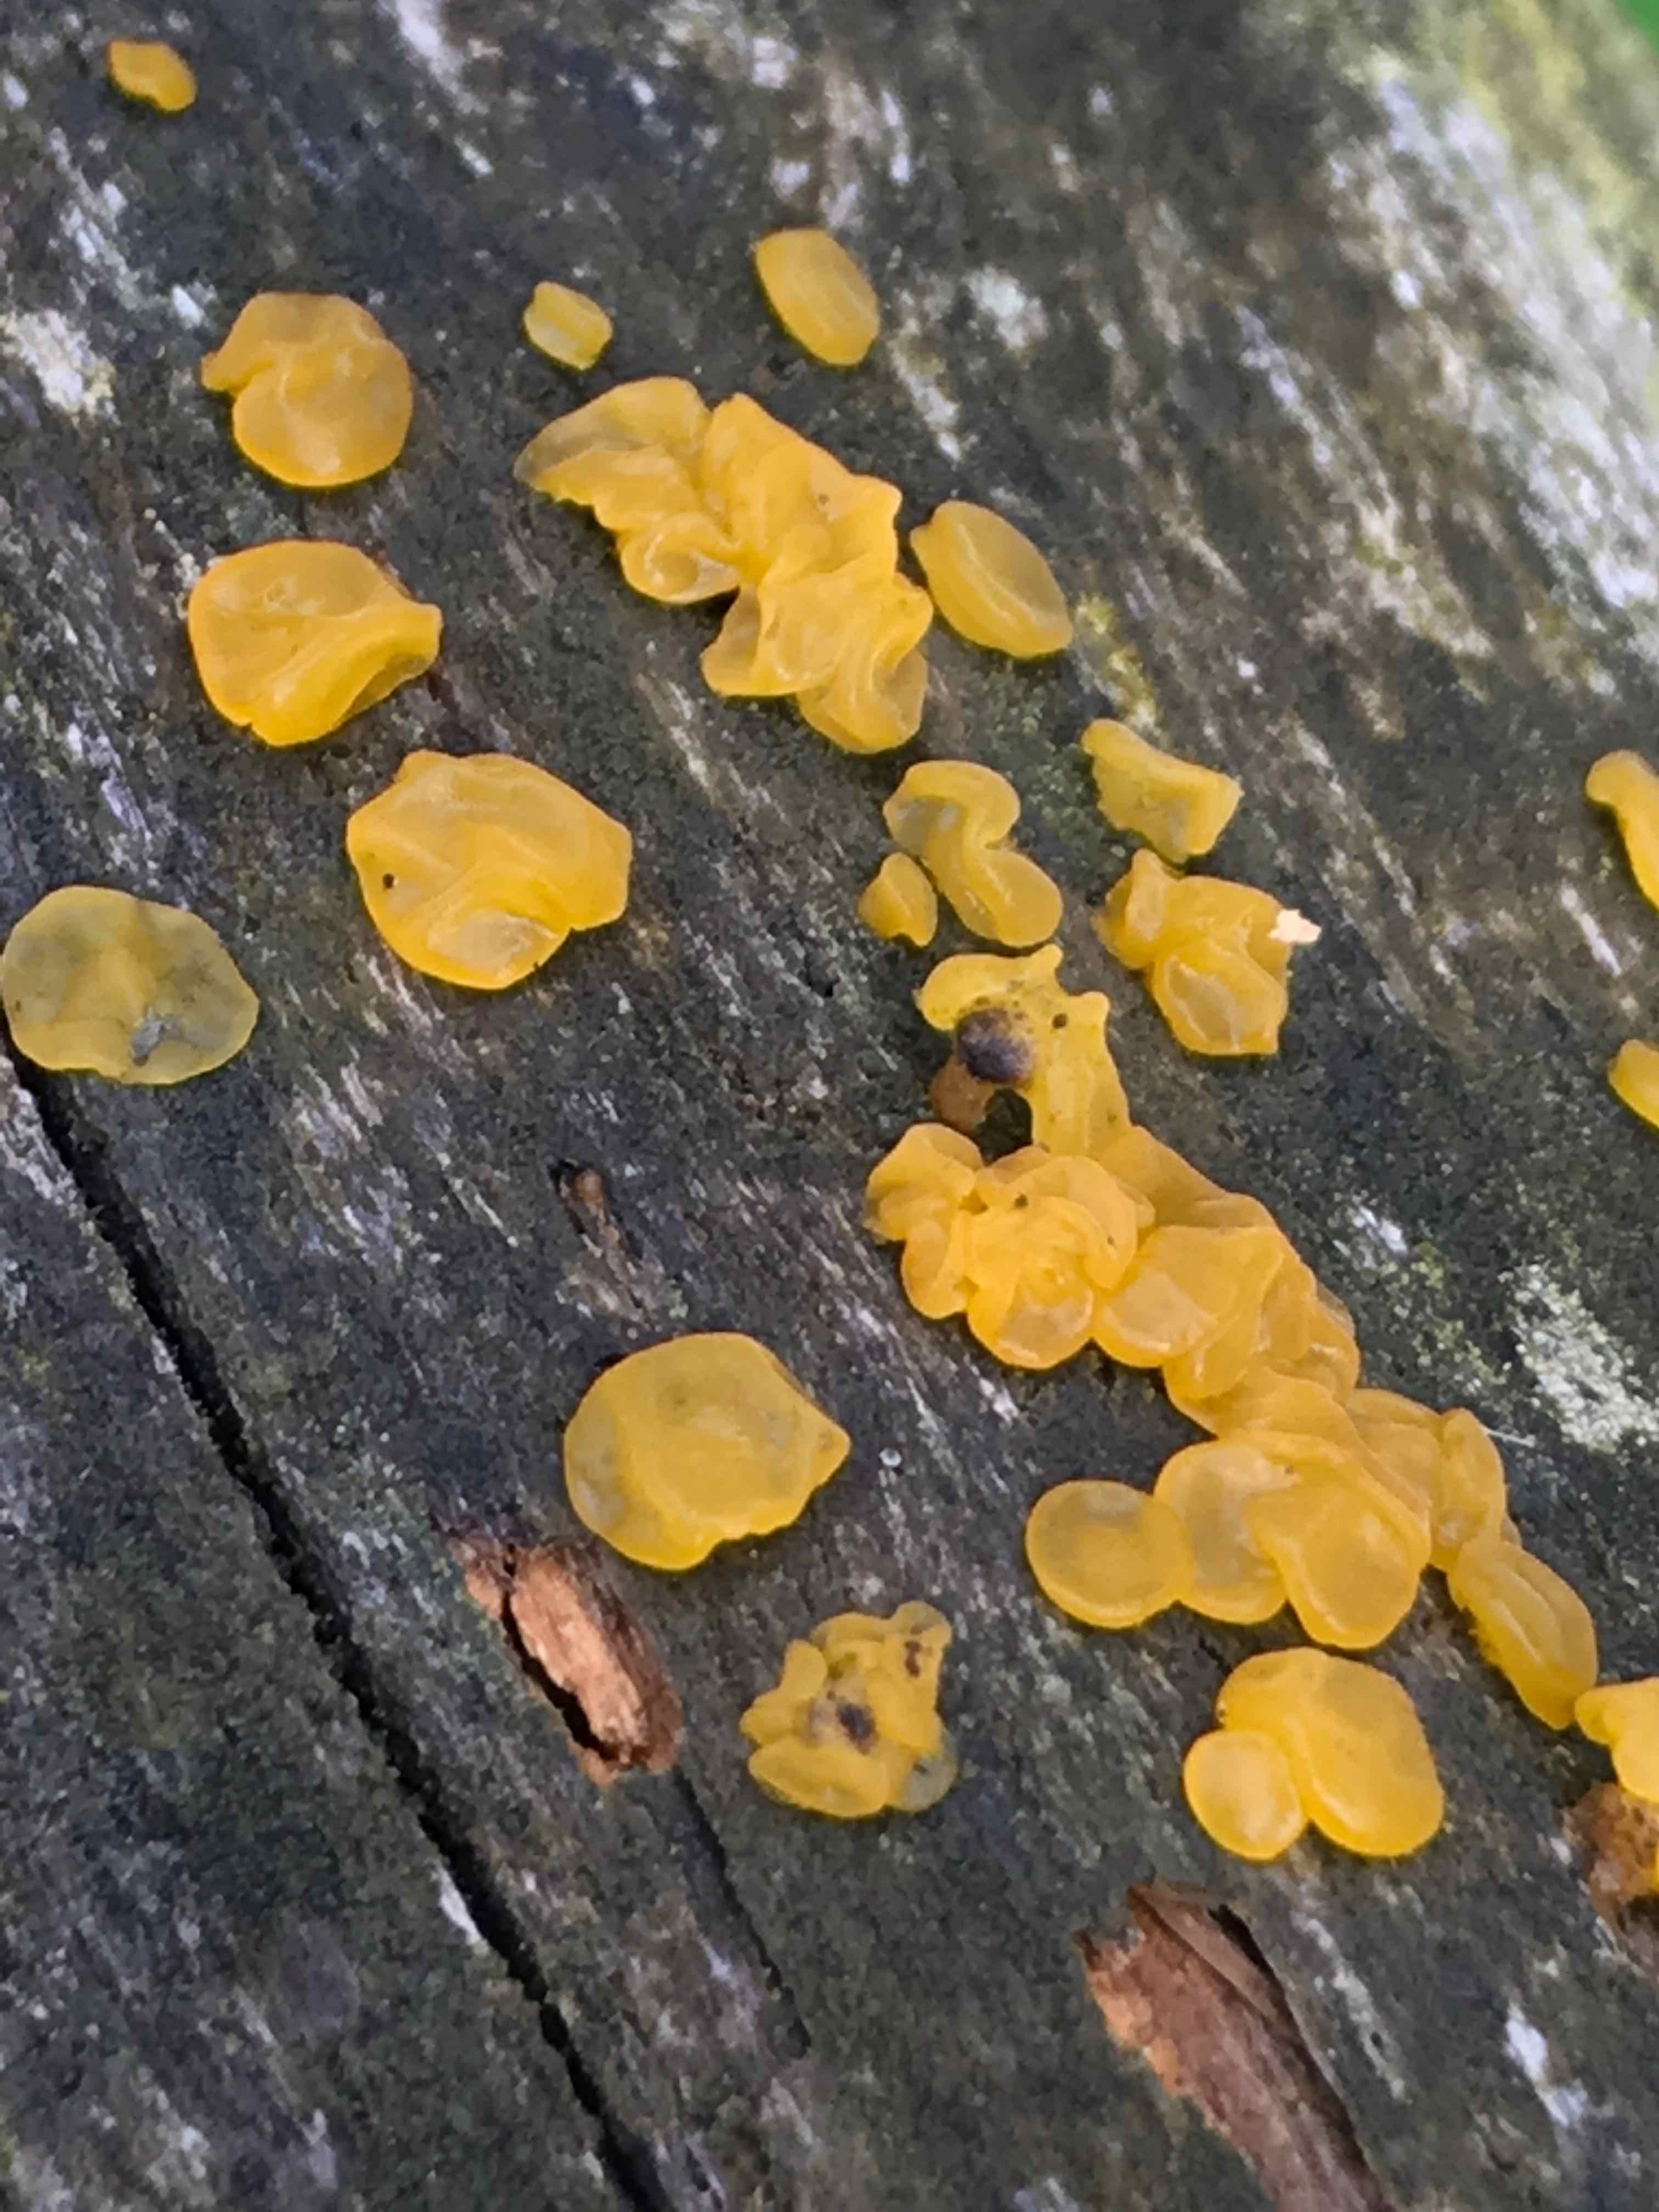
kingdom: Fungi
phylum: Basidiomycota
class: Dacrymycetes
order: Dacrymycetales
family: Dacrymycetaceae
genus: Dacrymyces
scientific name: Dacrymyces lacrymalis
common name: rynket tåresvamp
